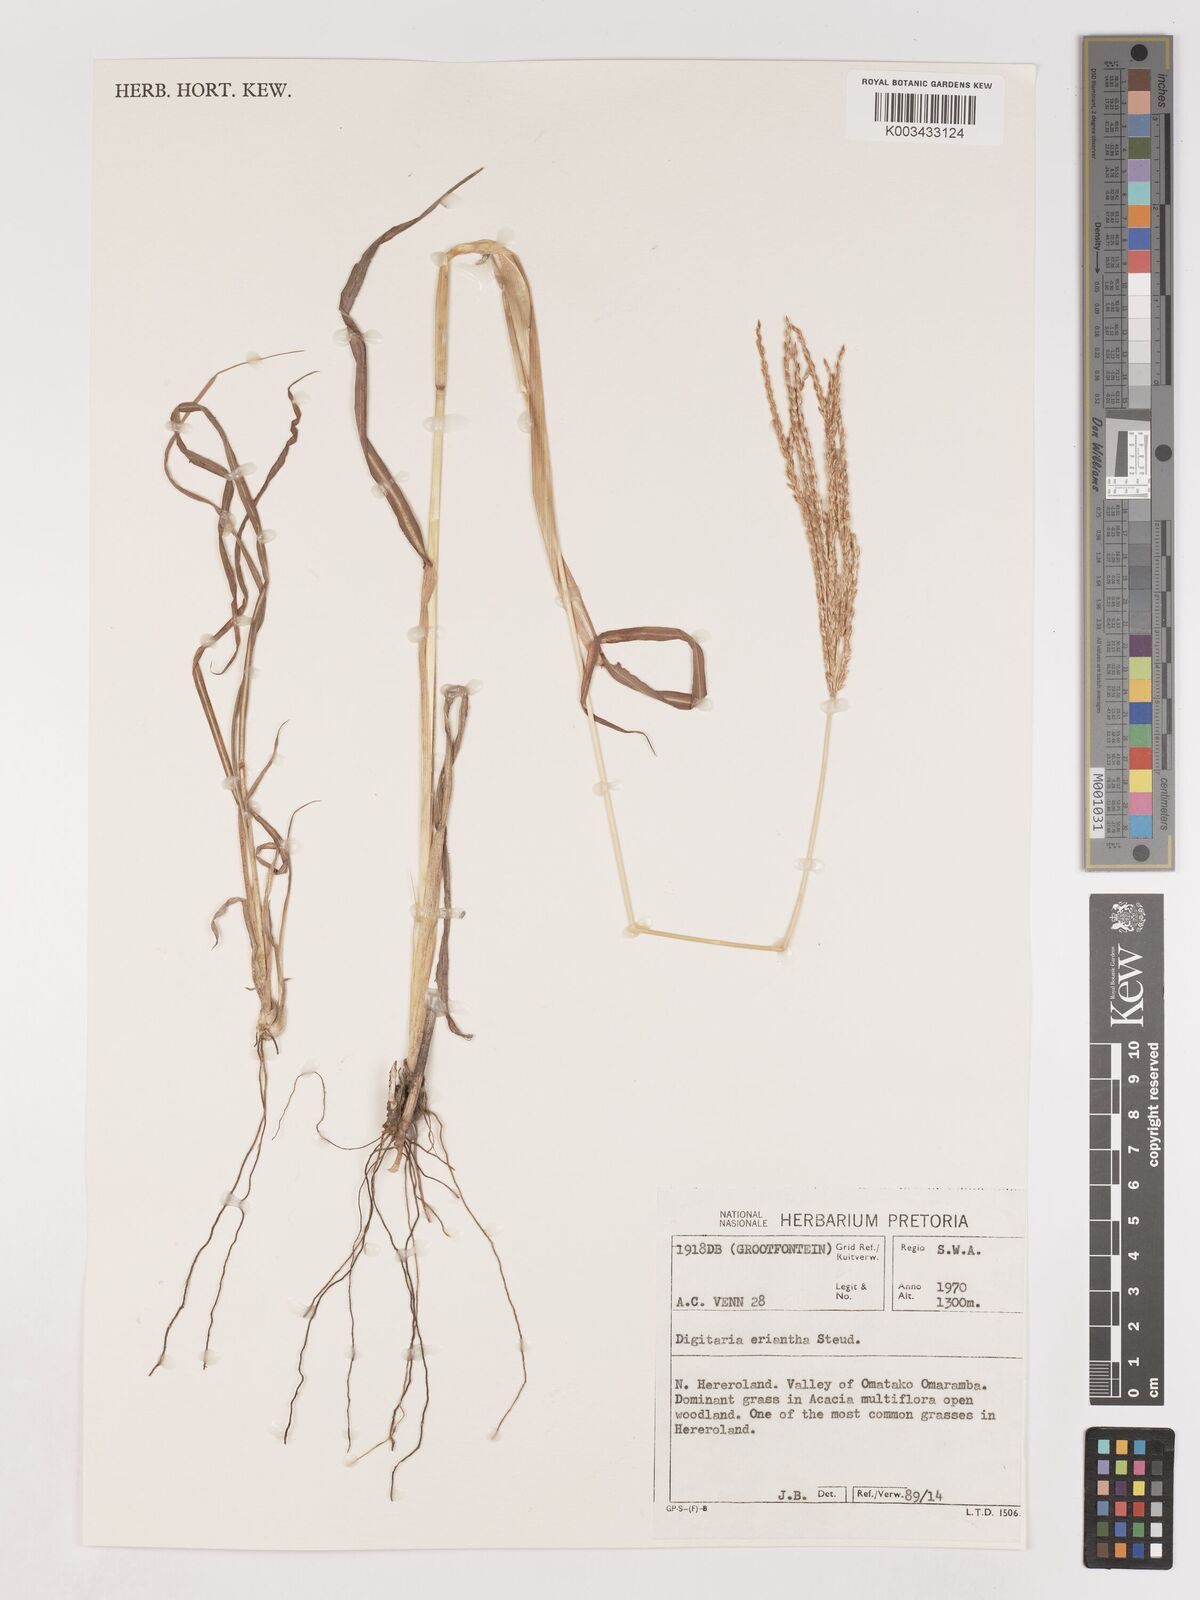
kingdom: Plantae
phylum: Tracheophyta
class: Liliopsida
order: Poales
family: Poaceae
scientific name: Poaceae
